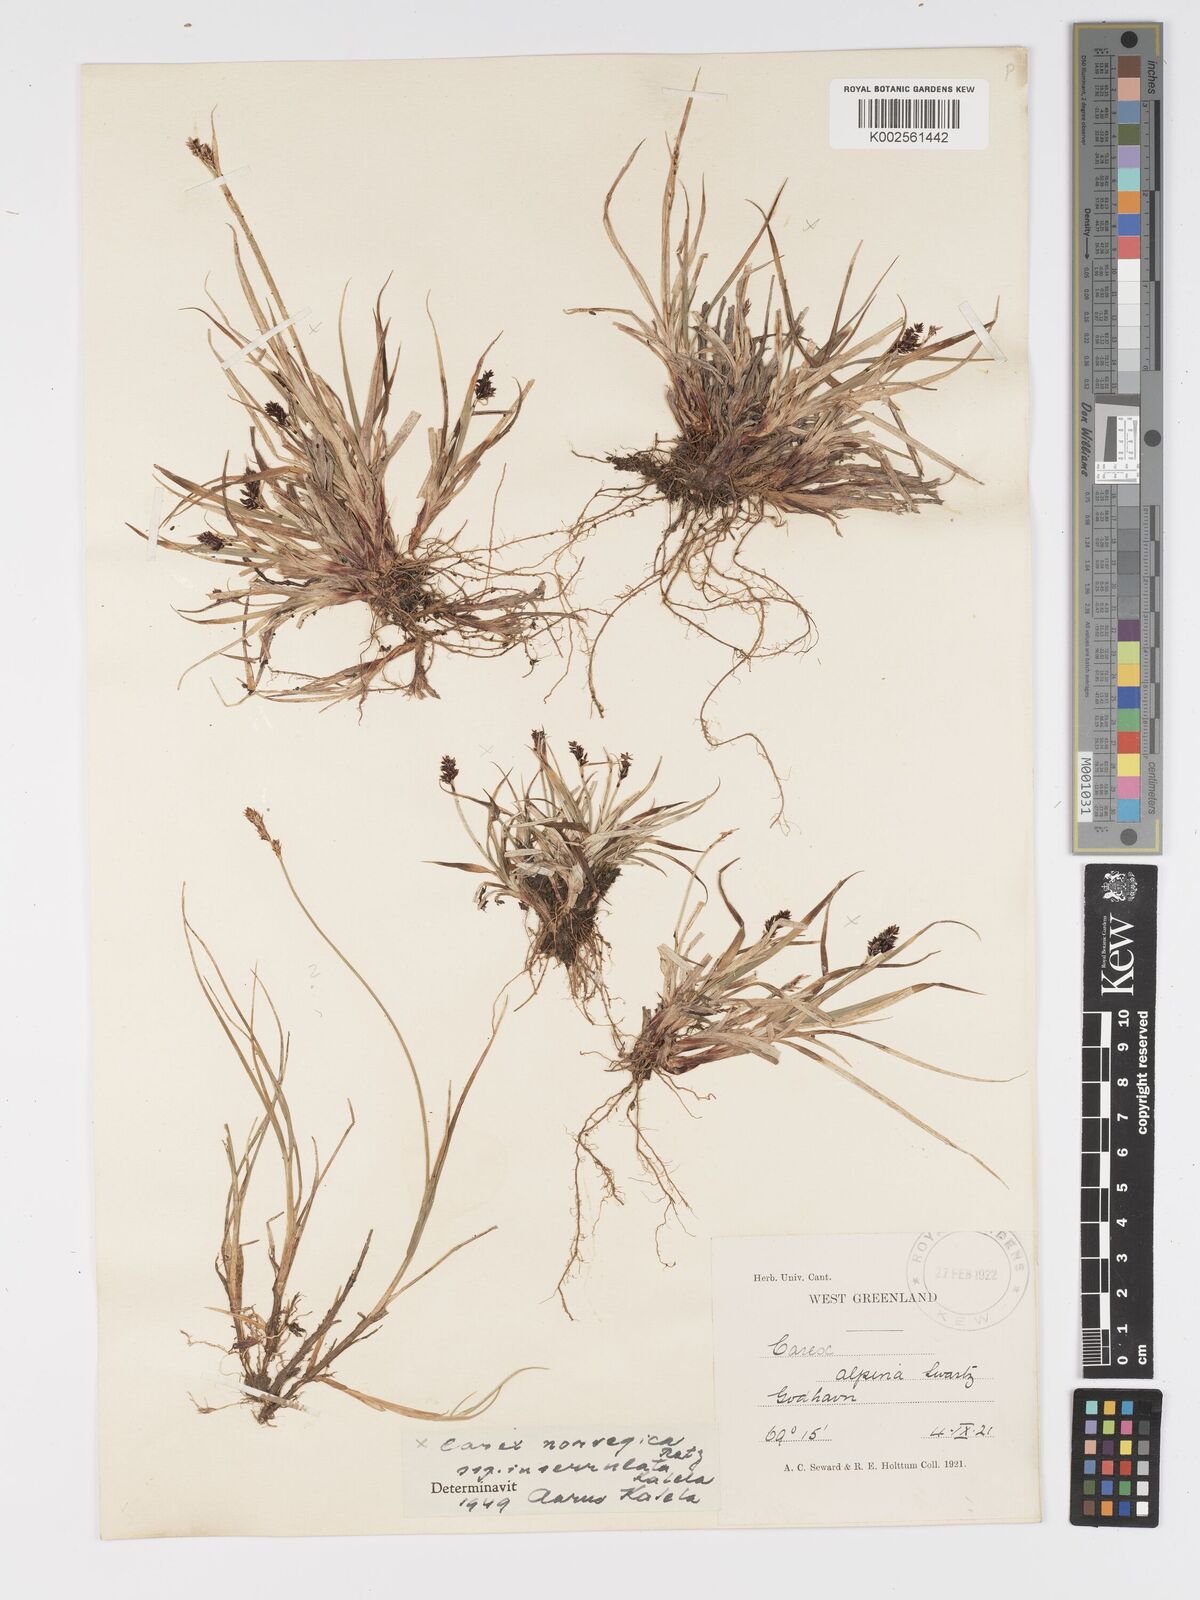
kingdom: Plantae
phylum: Tracheophyta
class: Liliopsida
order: Poales
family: Cyperaceae
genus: Carex
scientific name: Carex norvegica
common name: Close-headed alpine-sedge
